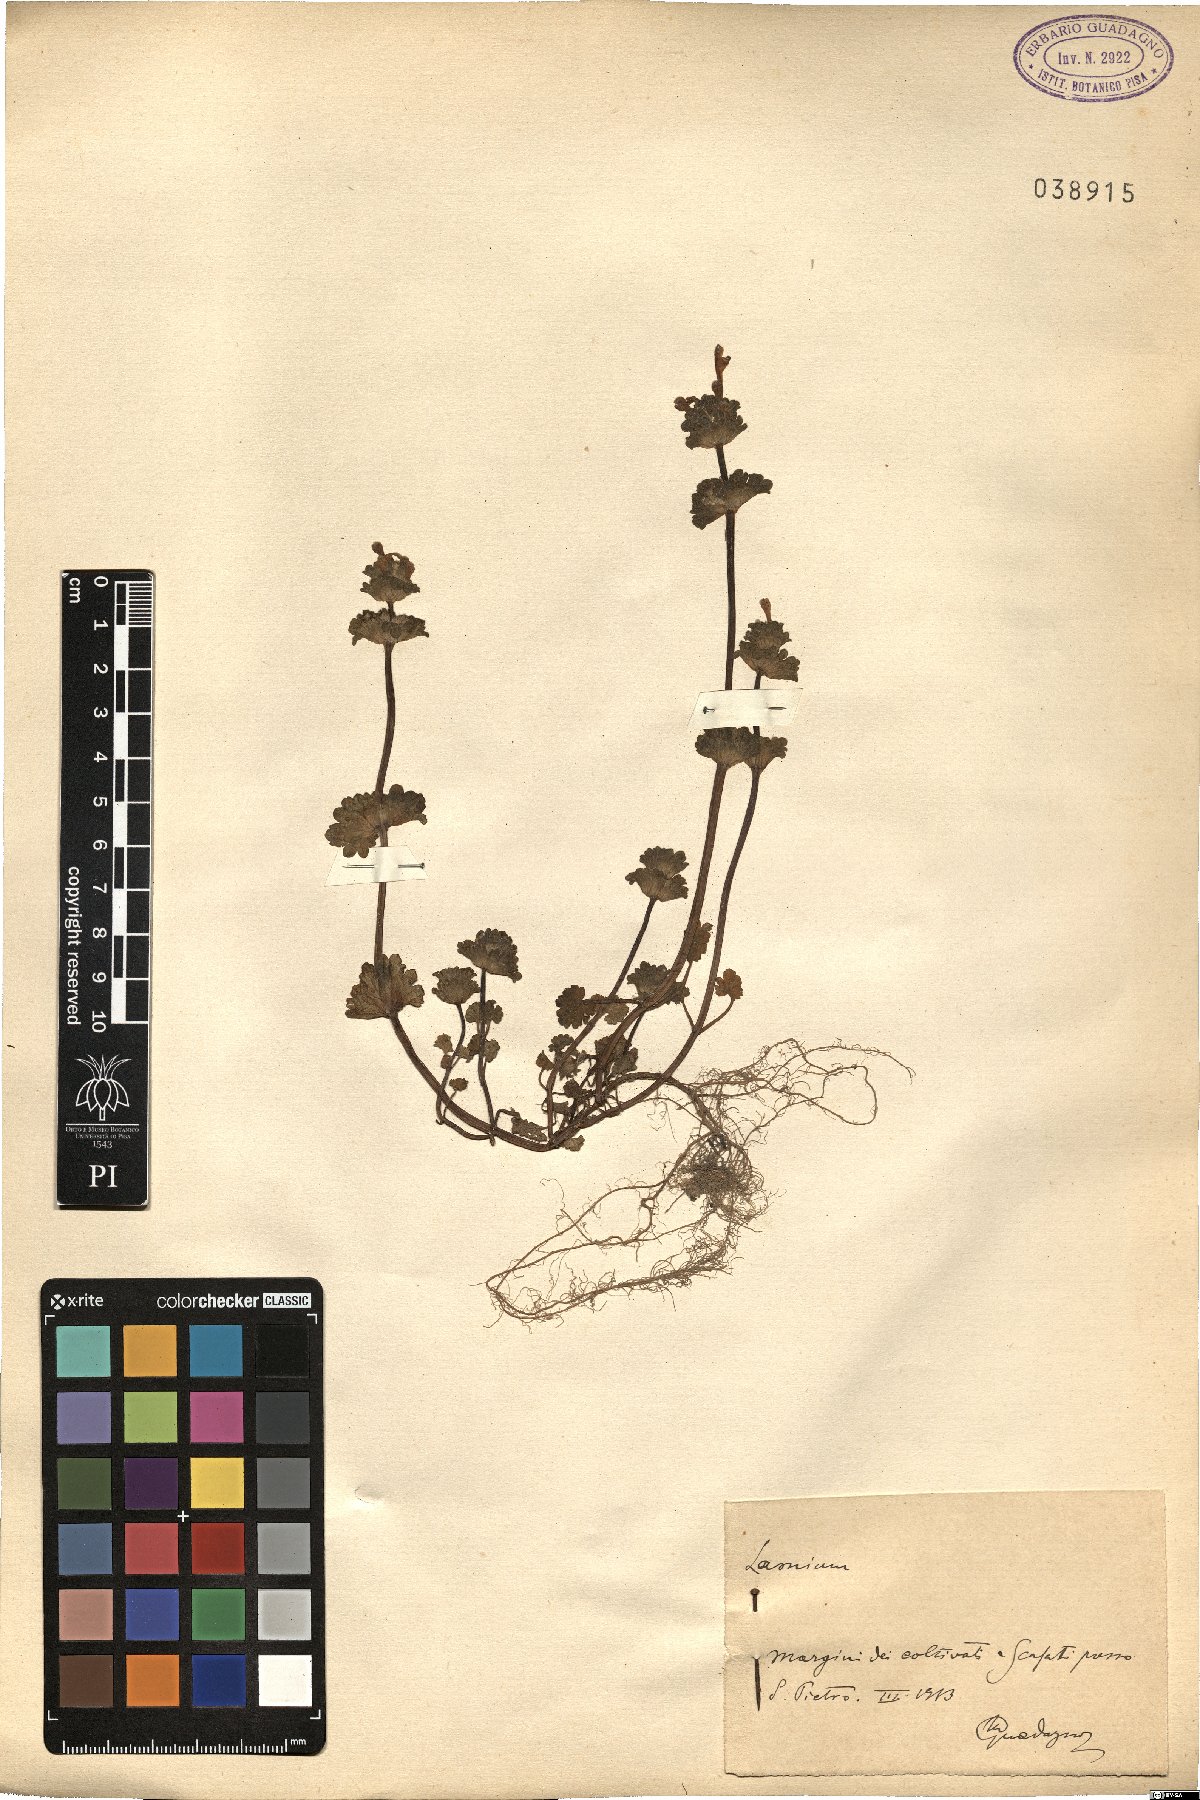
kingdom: Plantae
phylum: Tracheophyta
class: Magnoliopsida
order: Lamiales
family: Lamiaceae
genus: Lamium
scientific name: Lamium
